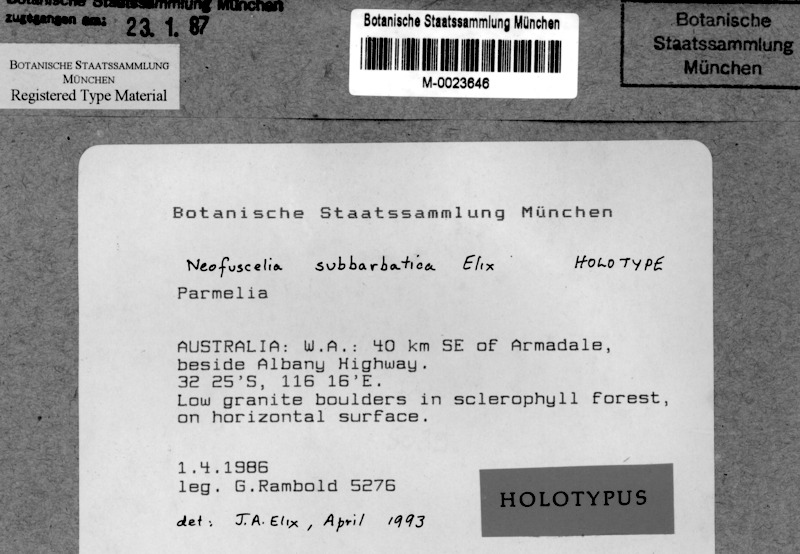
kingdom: Fungi
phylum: Ascomycota
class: Lecanoromycetes
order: Lecanorales
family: Parmeliaceae
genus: Xanthoparmelia
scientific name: Xanthoparmelia subbarbatica
